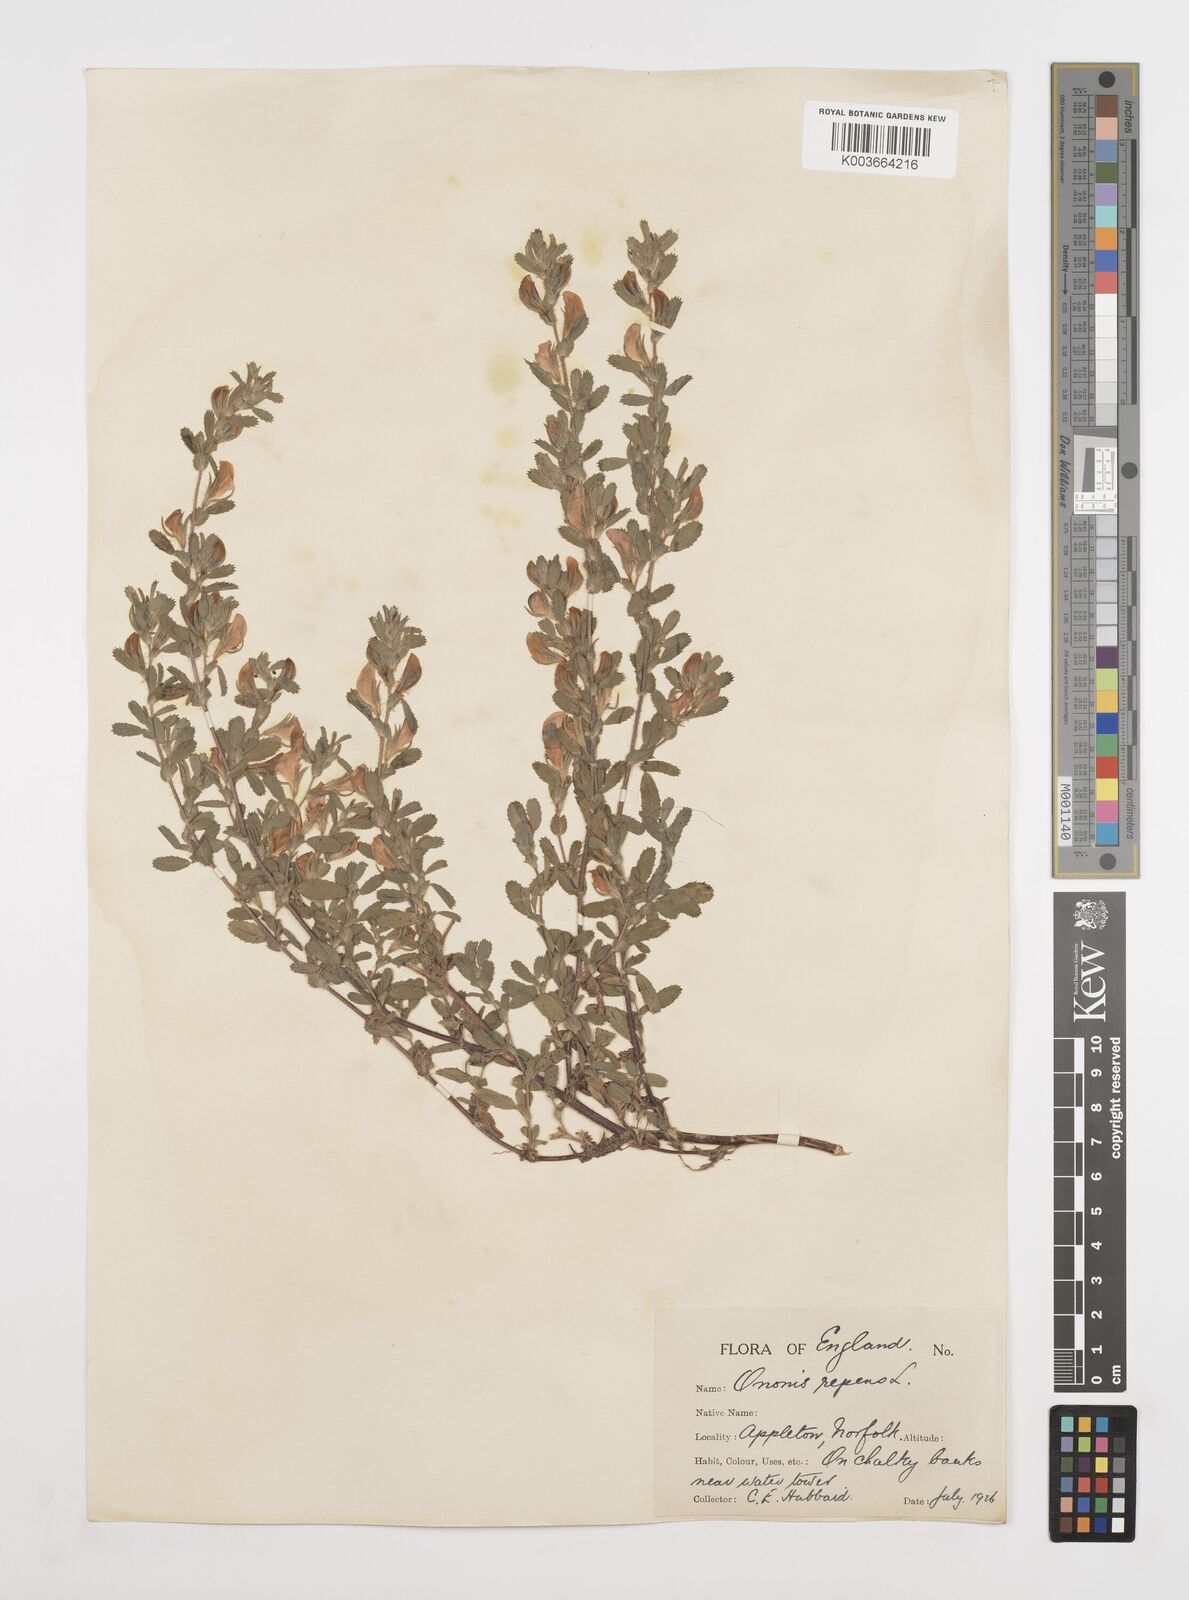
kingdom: Plantae
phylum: Tracheophyta
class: Magnoliopsida
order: Fabales
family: Fabaceae
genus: Ononis
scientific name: Ononis spinosa
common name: Spiny restharrow
